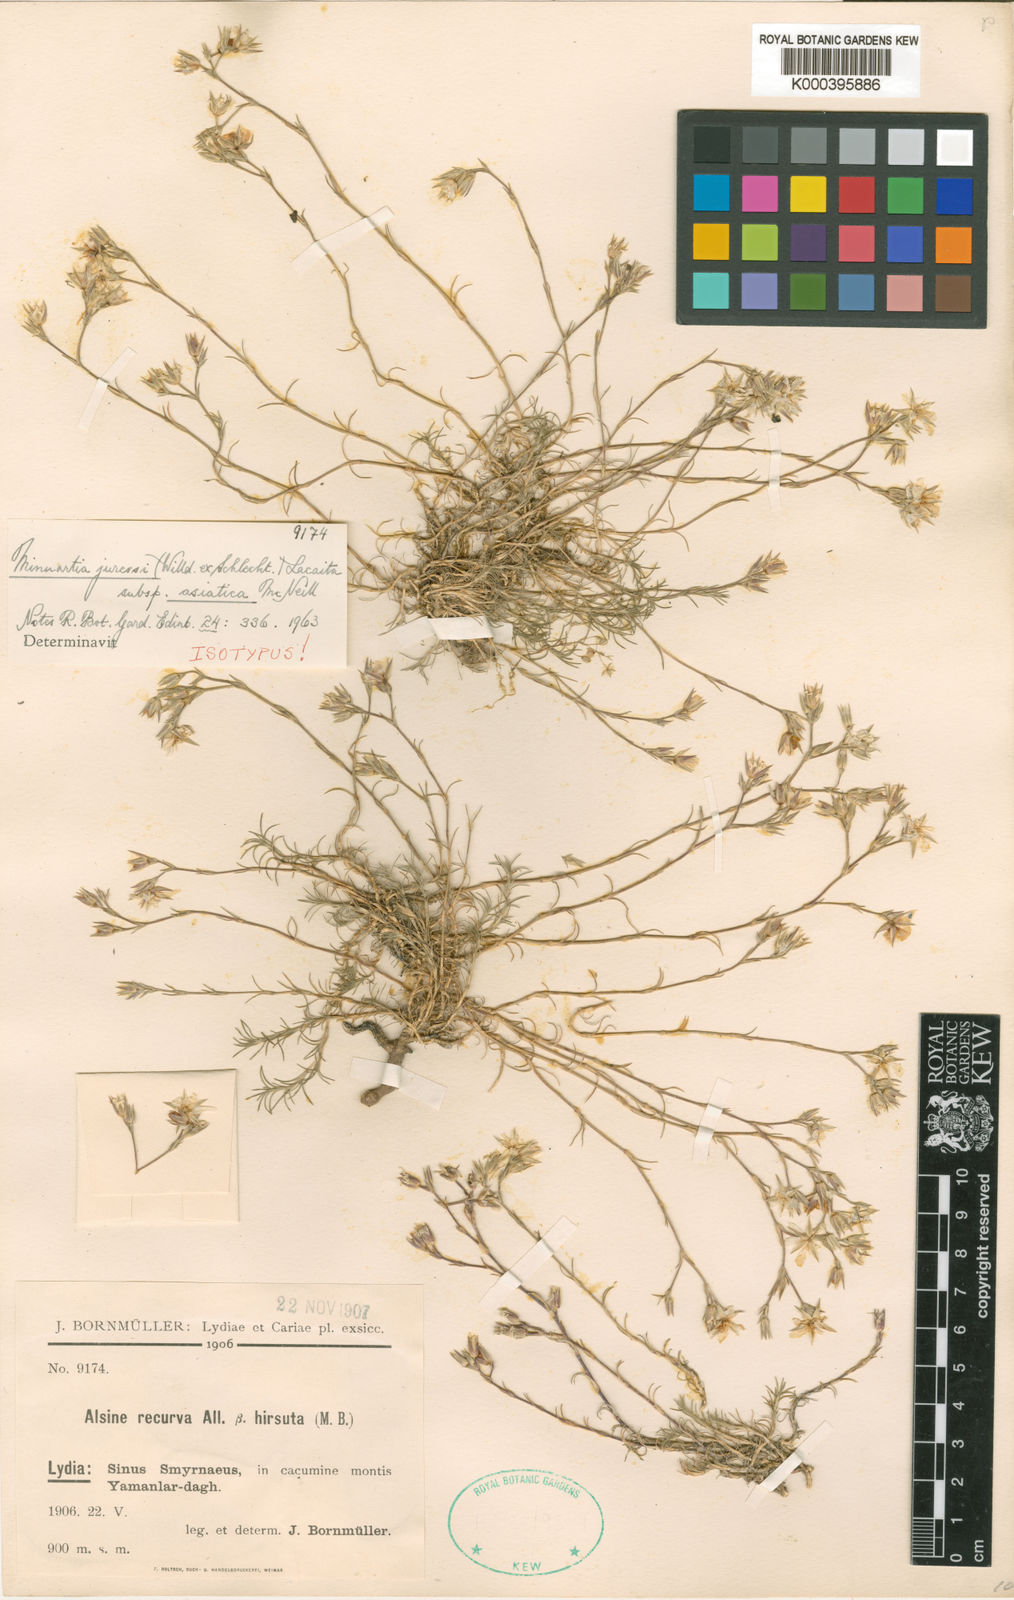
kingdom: Plantae
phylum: Tracheophyta
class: Magnoliopsida
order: Caryophyllales
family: Caryophyllaceae
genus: Minuartia
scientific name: Minuartia recurva
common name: Recurved sandwort
